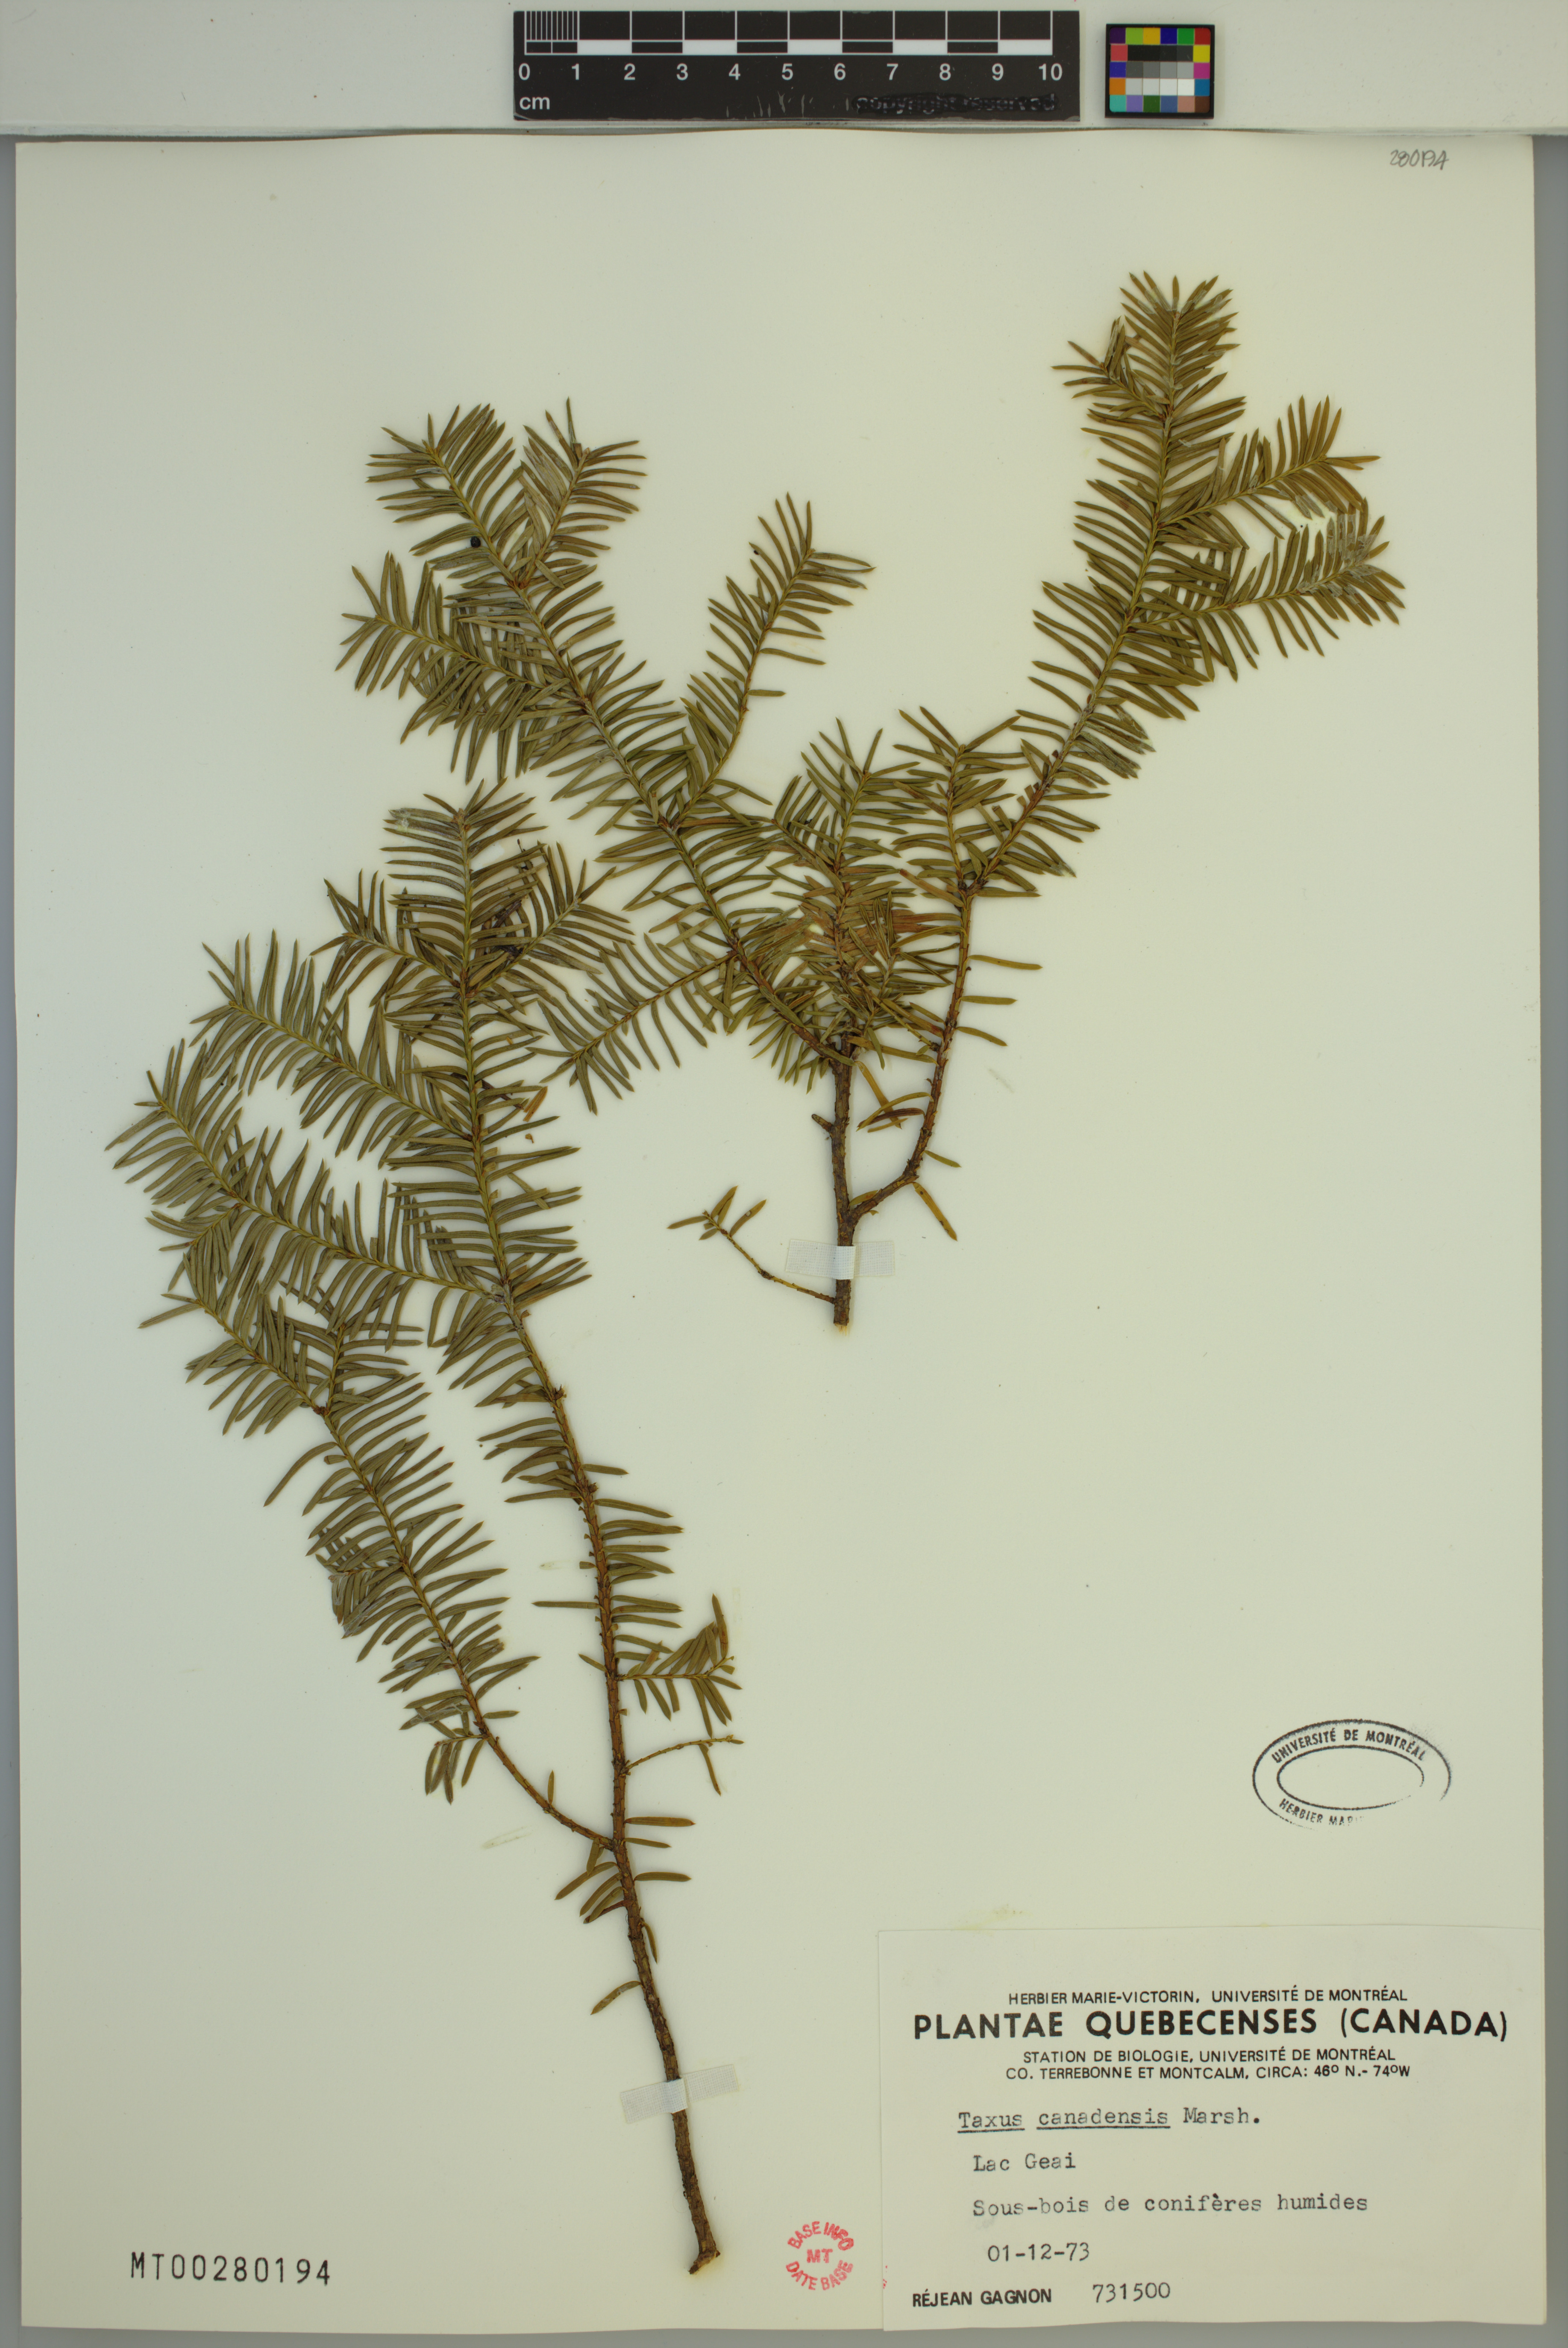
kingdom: Plantae
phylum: Tracheophyta
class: Pinopsida
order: Pinales
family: Taxaceae
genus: Taxus
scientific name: Taxus canadensis
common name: American yew
